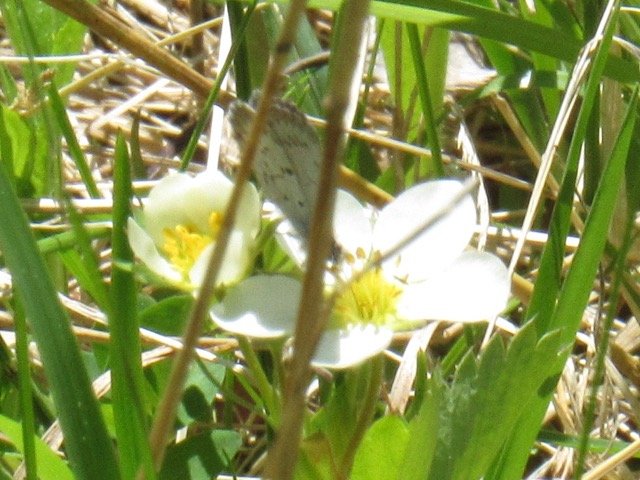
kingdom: Animalia
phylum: Arthropoda
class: Insecta
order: Lepidoptera
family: Lycaenidae
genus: Celastrina
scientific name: Celastrina lucia
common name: Northern Spring Azure
